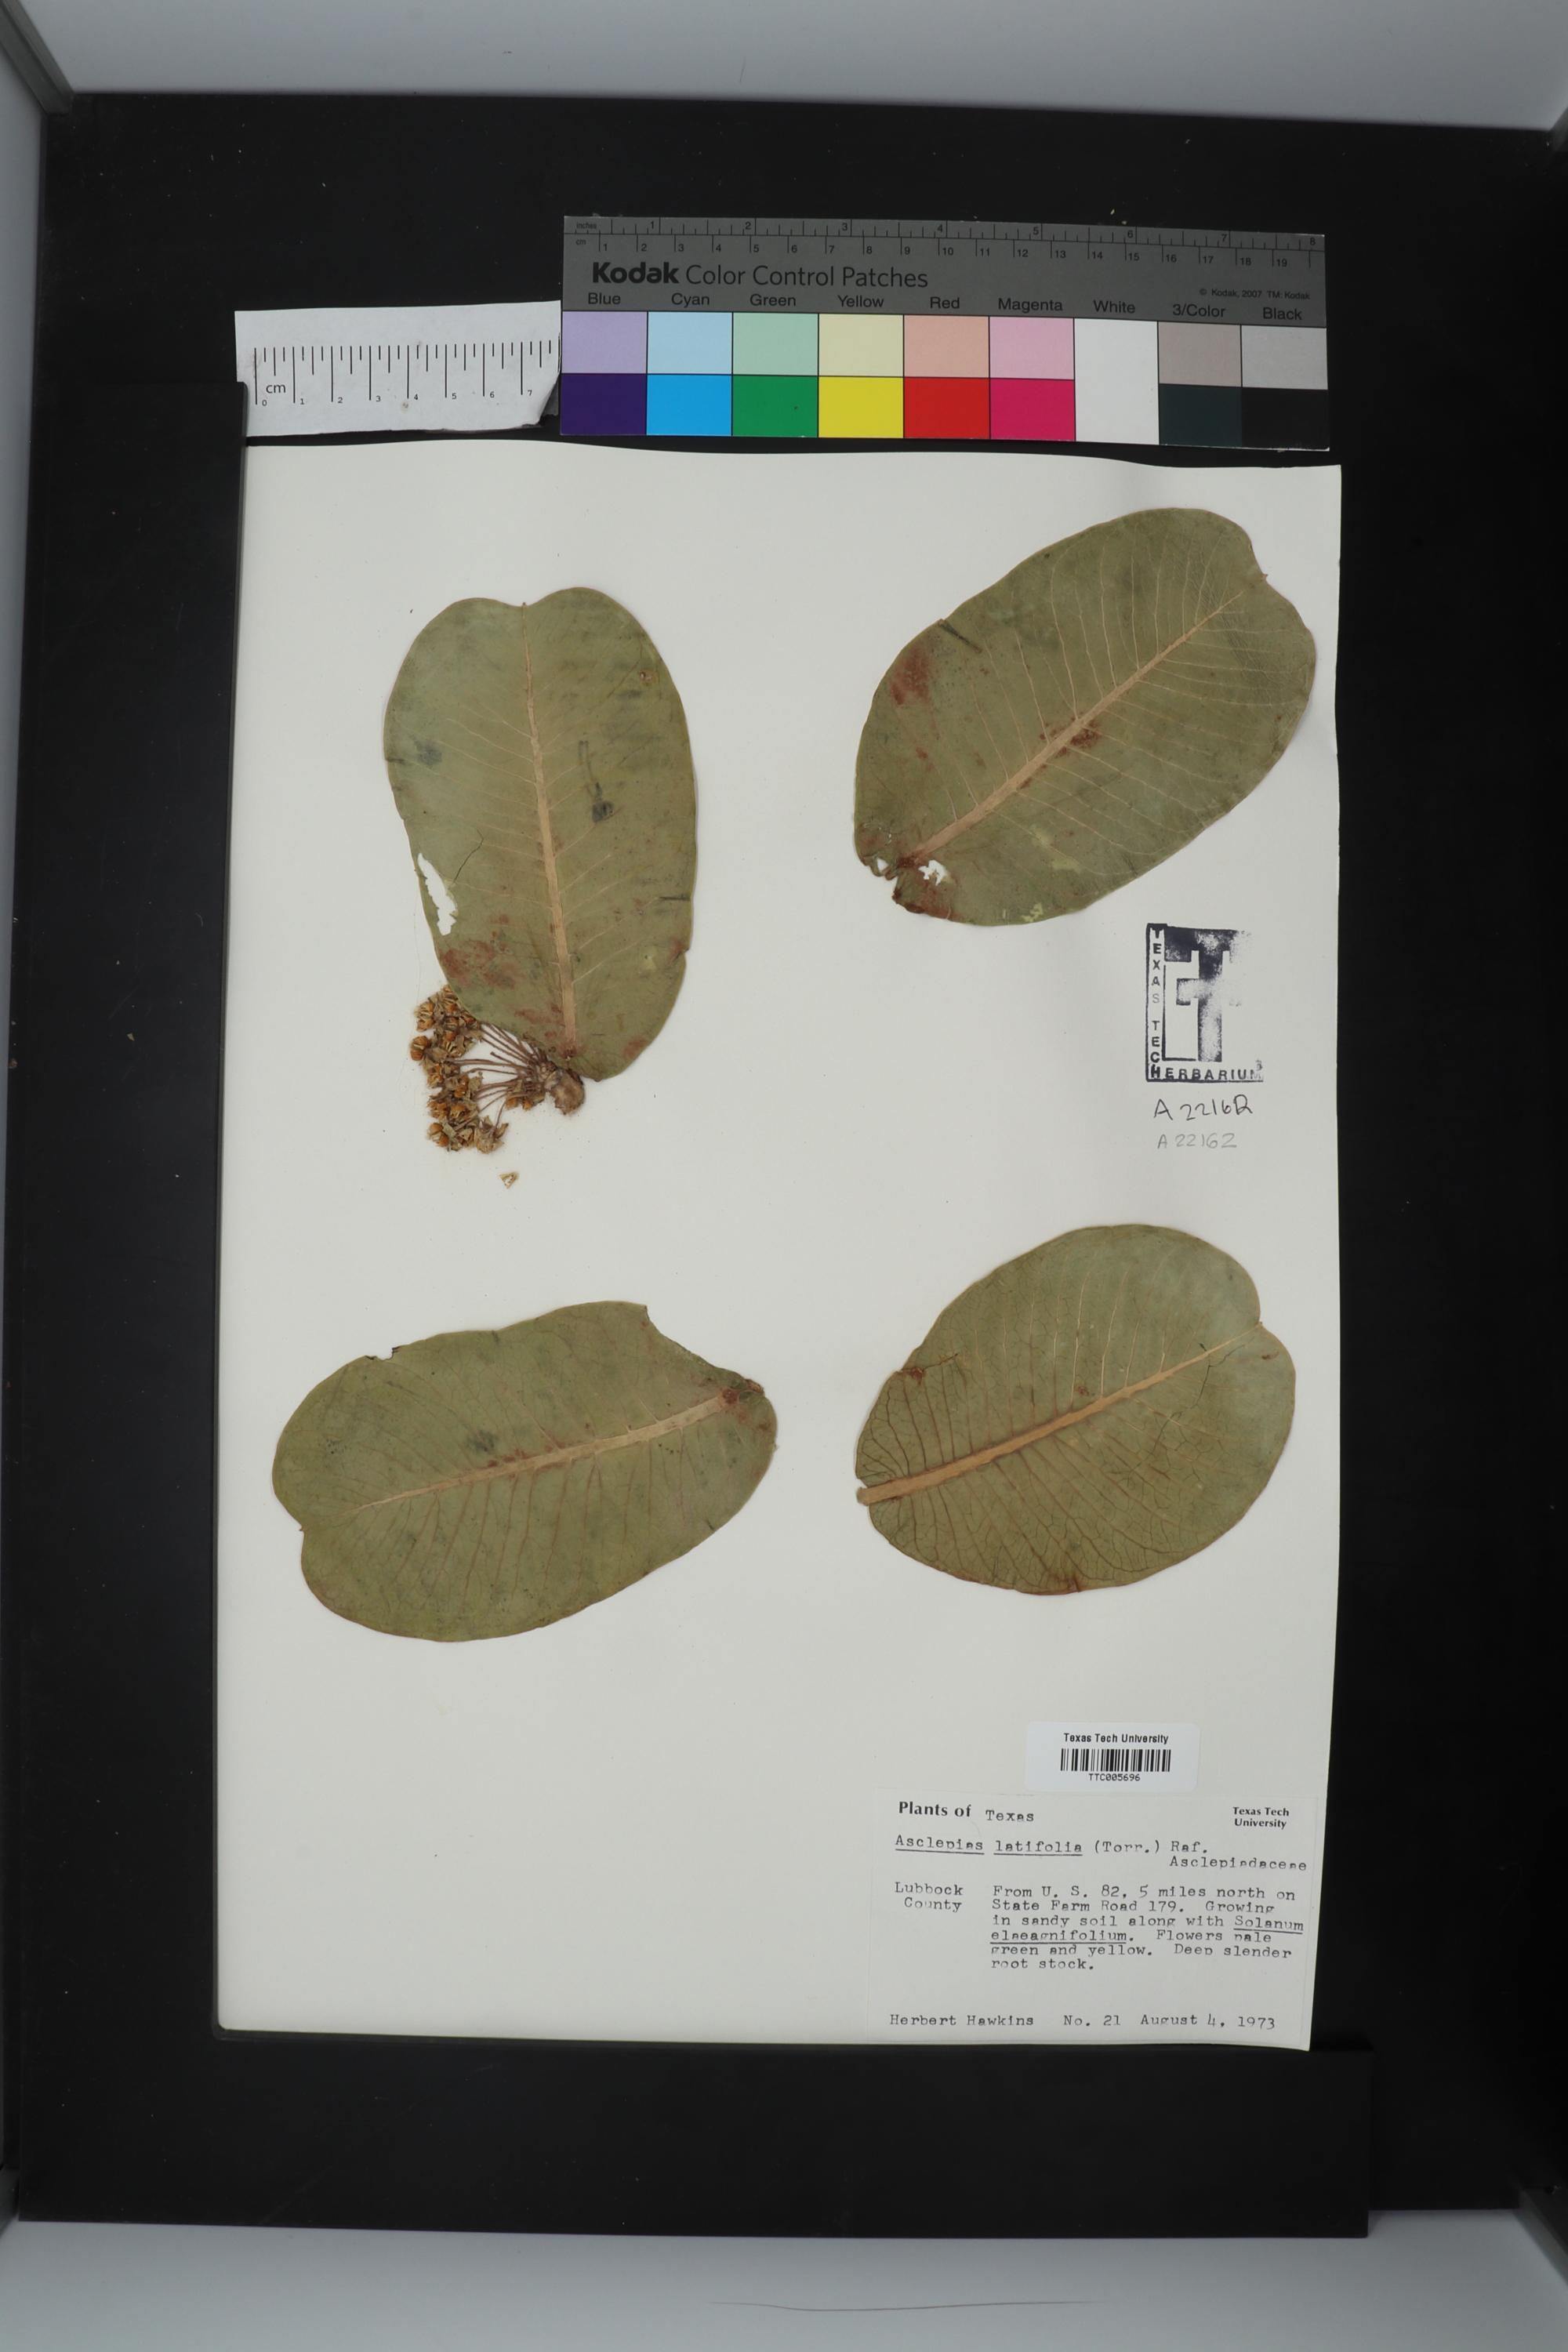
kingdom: Plantae
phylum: Tracheophyta
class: Magnoliopsida
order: Gentianales
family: Apocynaceae
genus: Asclepias
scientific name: Asclepias latifolia
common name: Broadleaf milkweed
